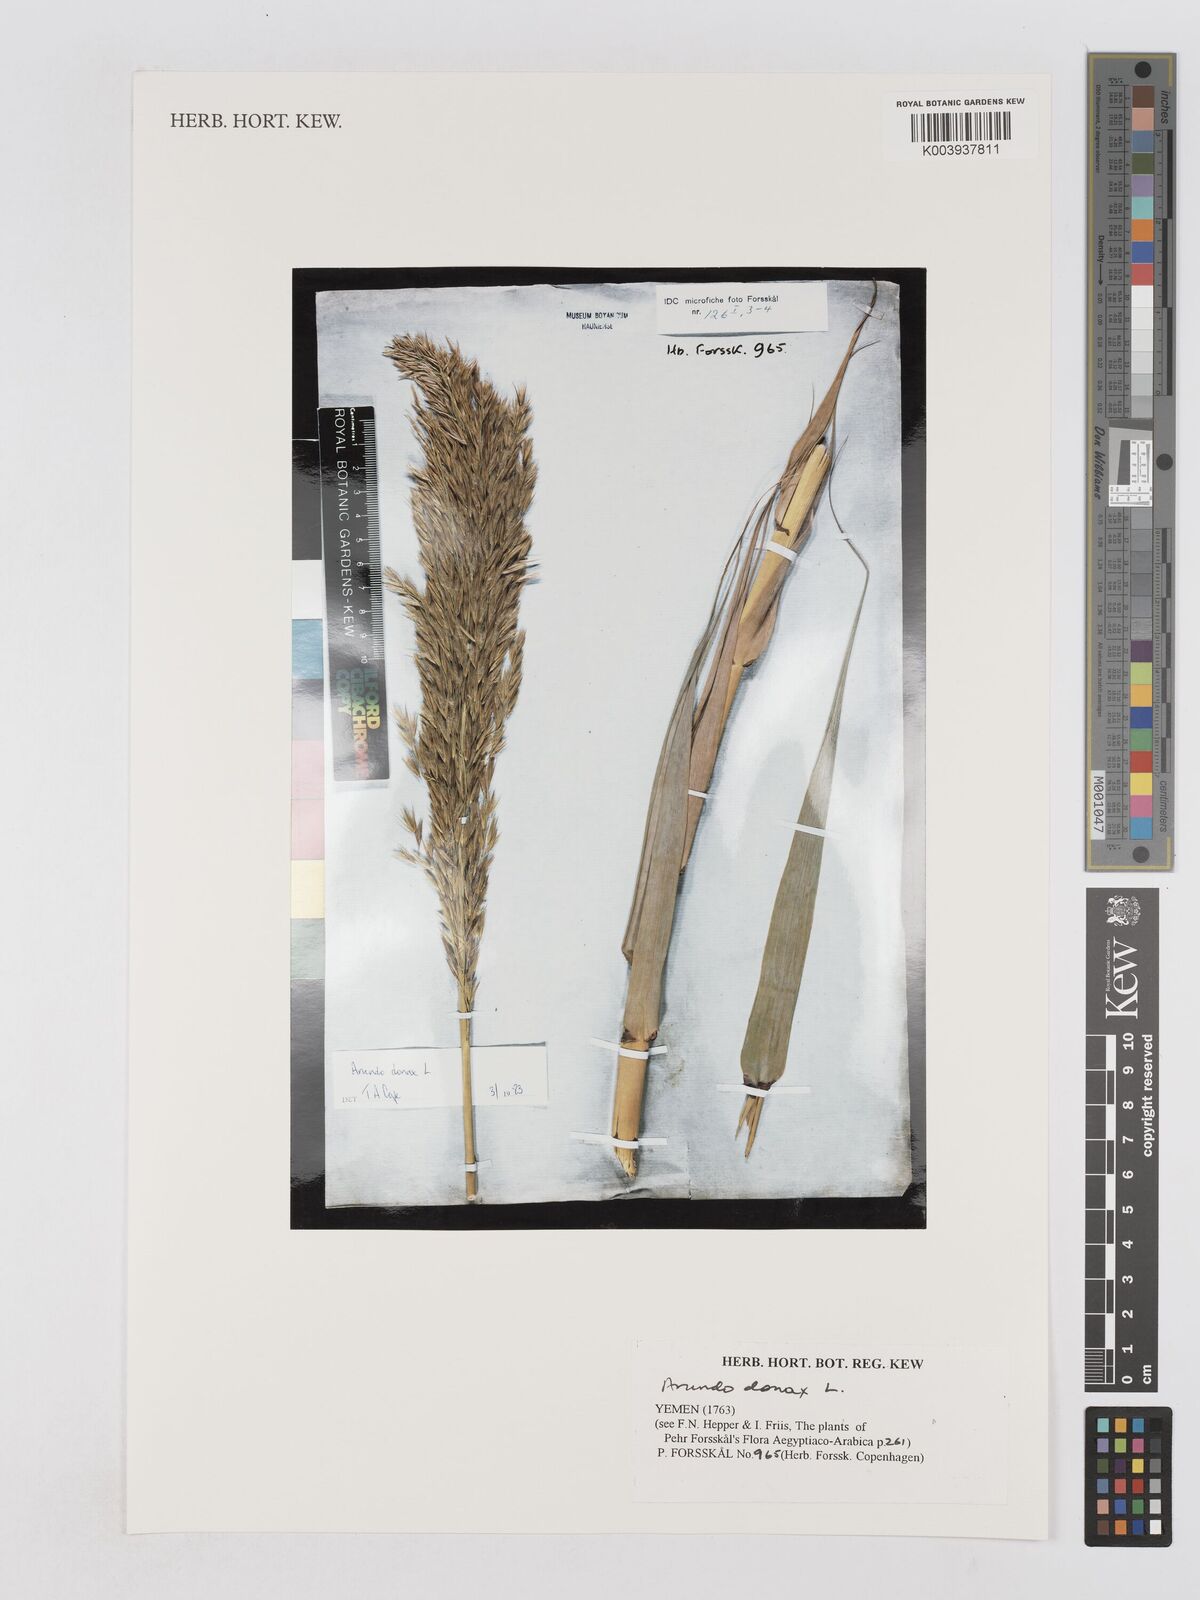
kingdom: Plantae
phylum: Tracheophyta
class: Liliopsida
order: Poales
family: Poaceae
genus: Arundo
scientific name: Arundo donax
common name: Giant reed
